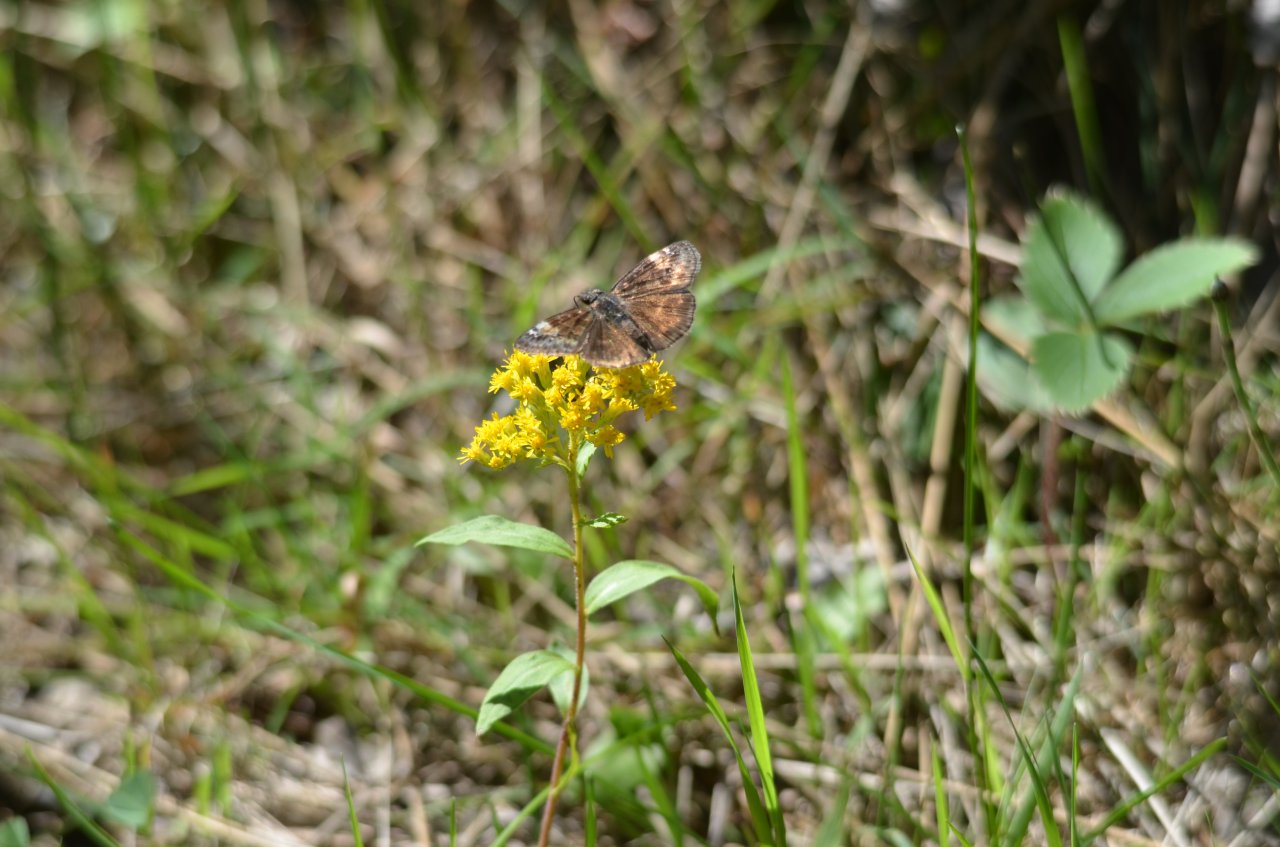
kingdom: Animalia
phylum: Arthropoda
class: Insecta
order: Lepidoptera
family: Hesperiidae
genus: Gesta
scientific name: Gesta
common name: Wild Indigo Duskywing
